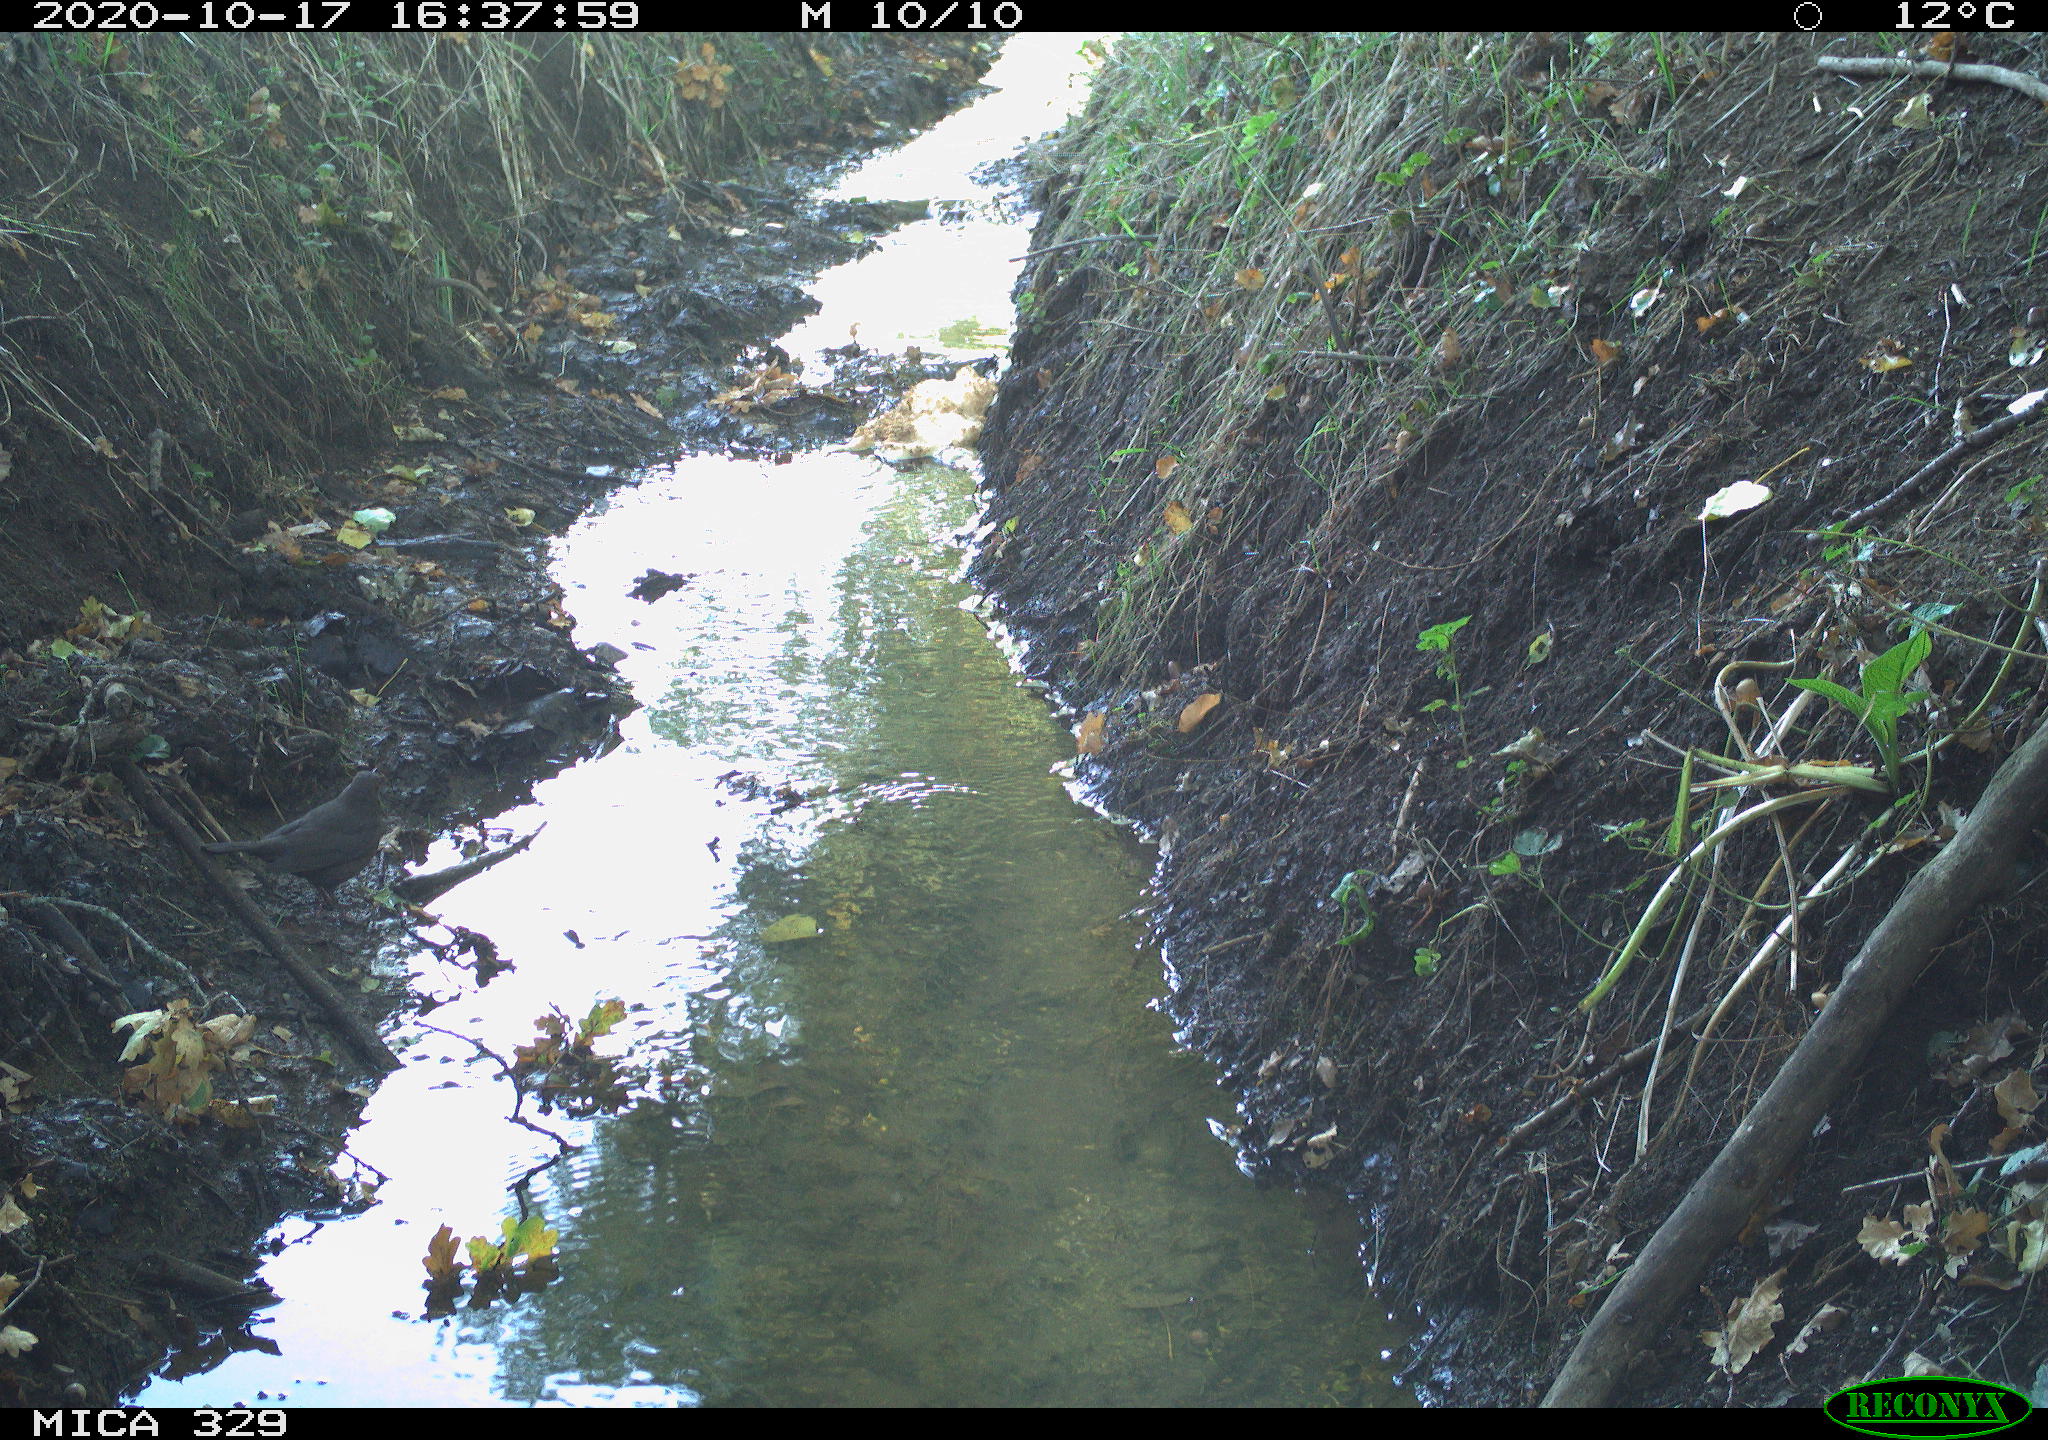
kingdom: Animalia
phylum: Chordata
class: Aves
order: Passeriformes
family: Turdidae
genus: Turdus
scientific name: Turdus merula
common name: Common blackbird
